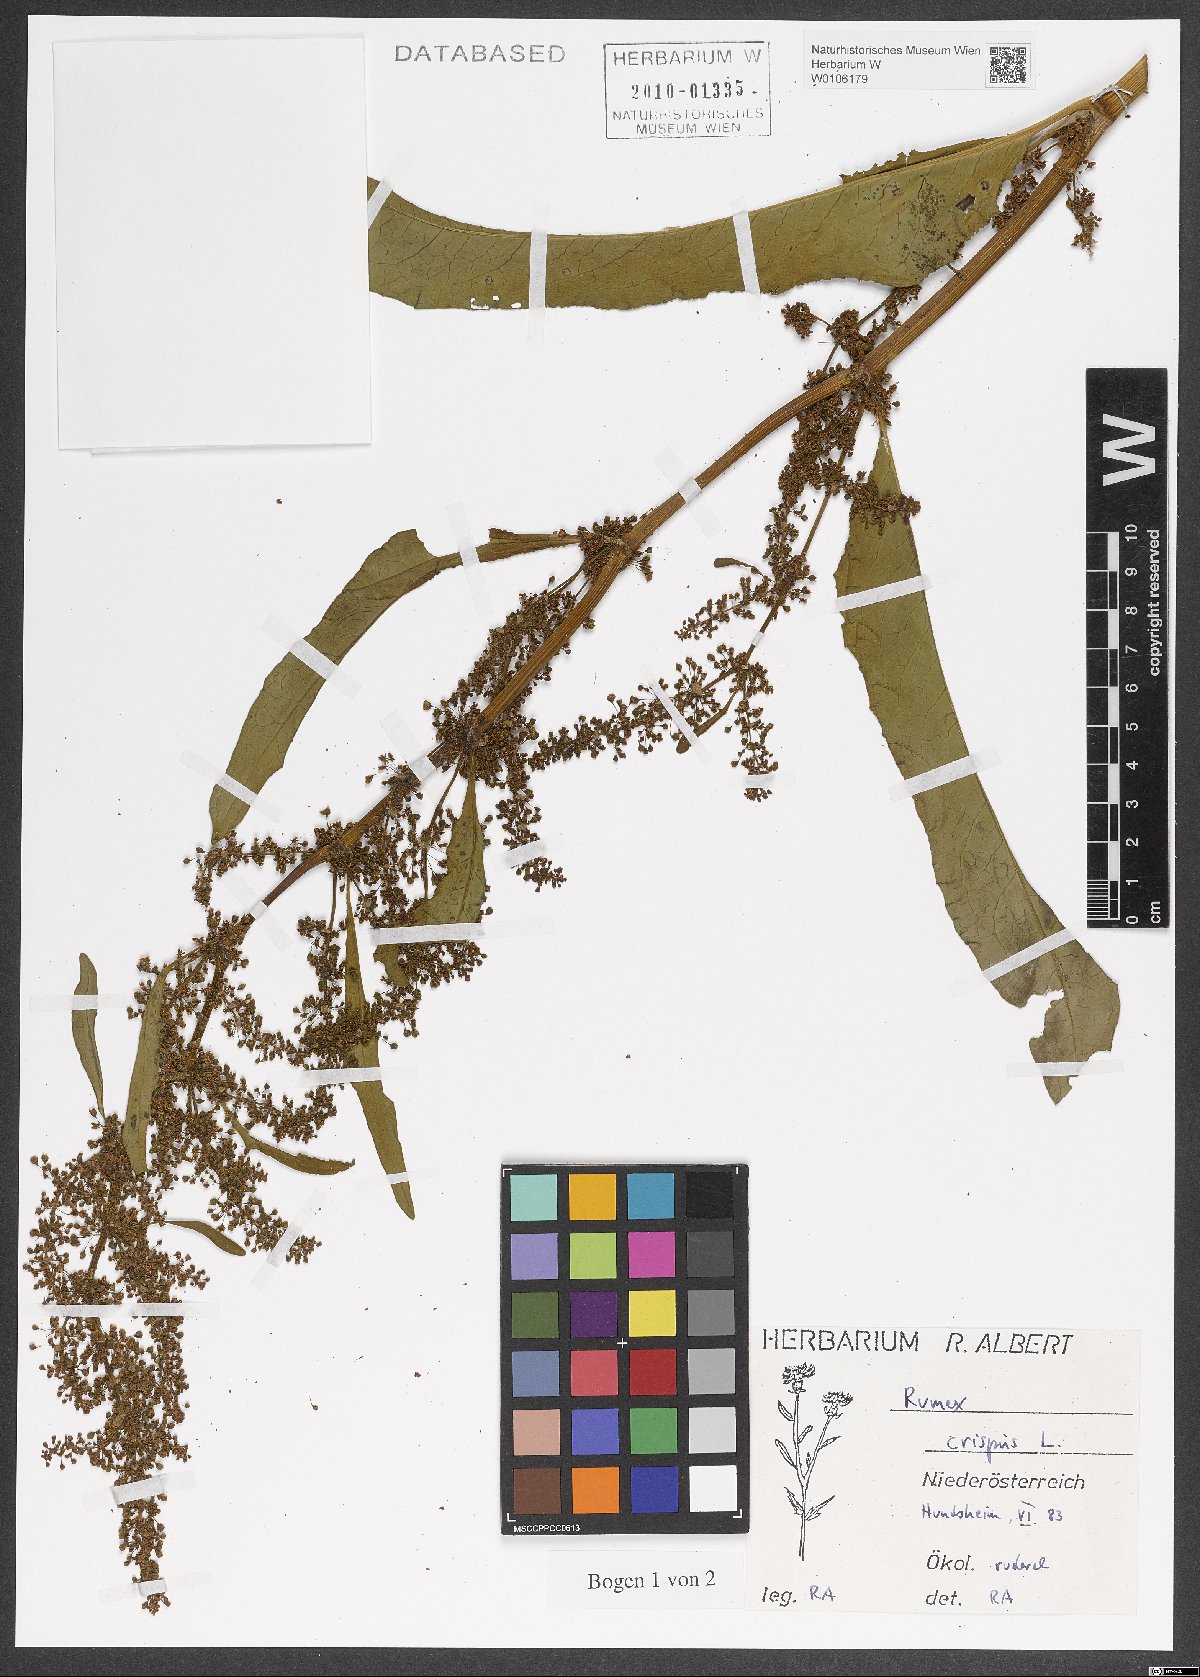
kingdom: Plantae
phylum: Tracheophyta
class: Magnoliopsida
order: Caryophyllales
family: Polygonaceae
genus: Rumex
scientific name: Rumex crispus
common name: Curled dock
